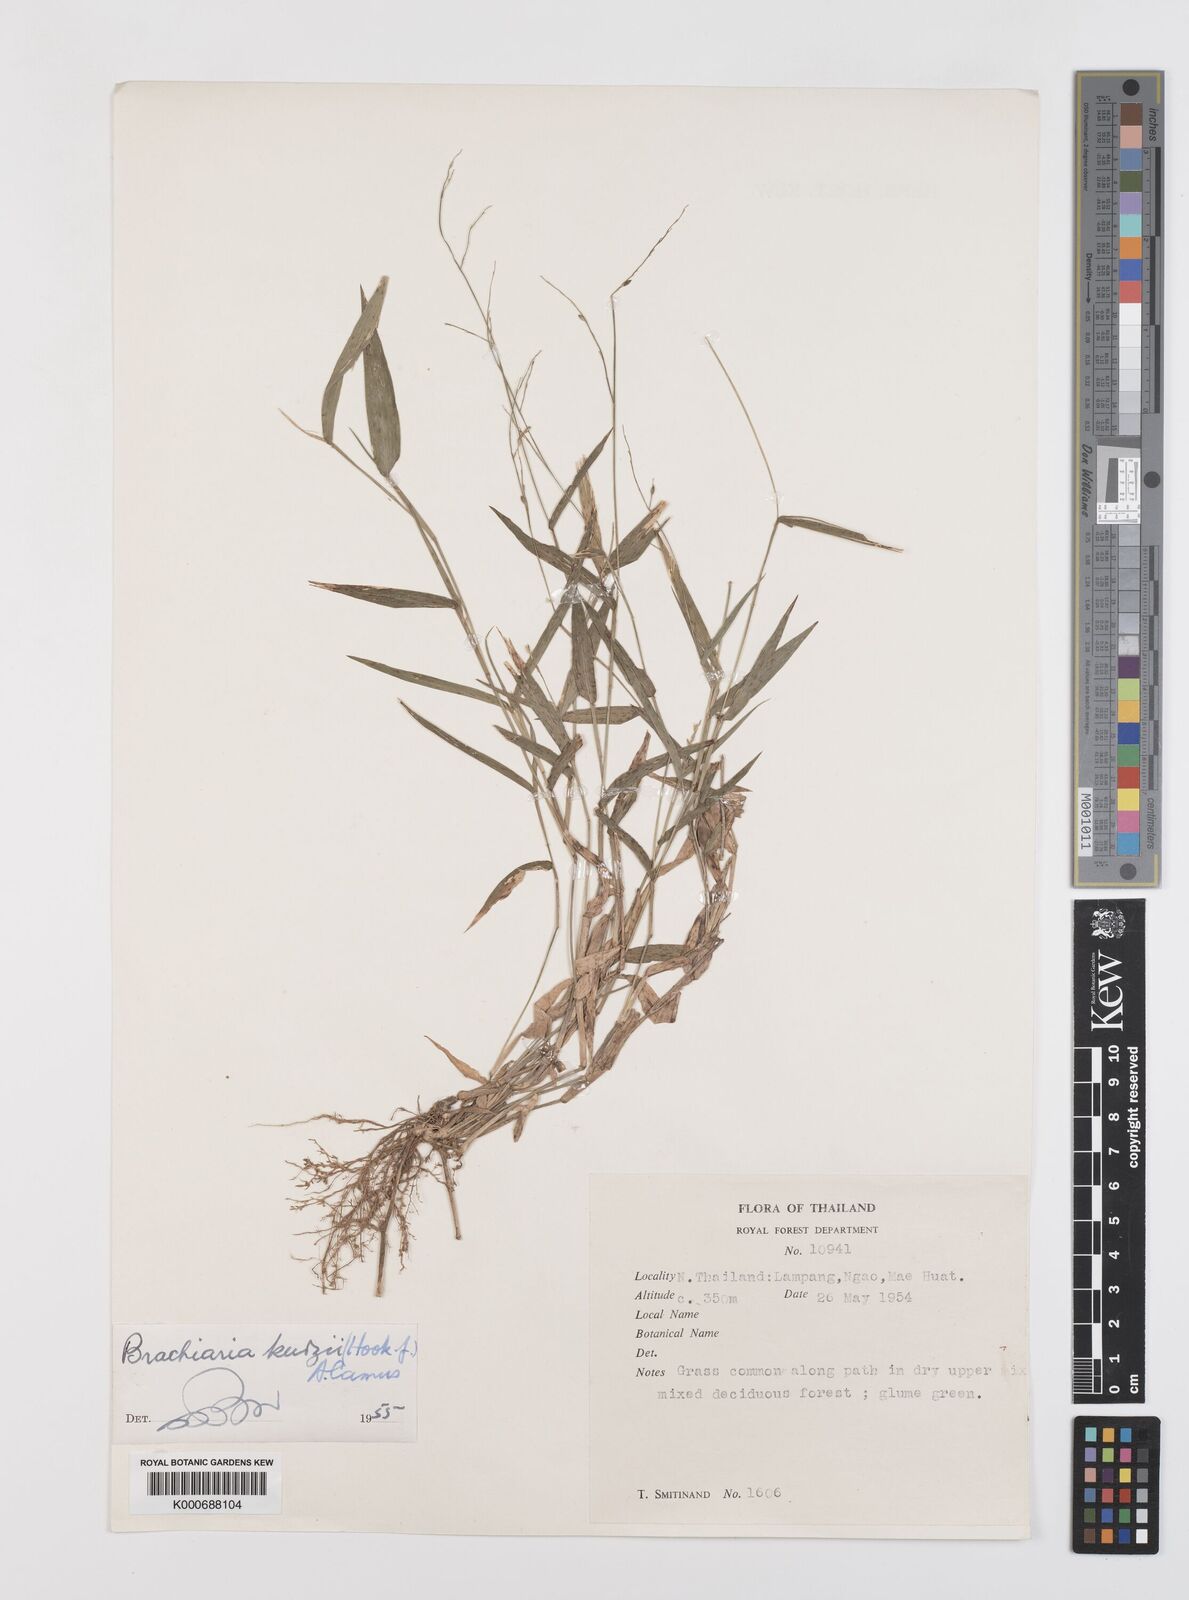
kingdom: Plantae
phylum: Tracheophyta
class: Liliopsida
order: Poales
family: Poaceae
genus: Urochloa
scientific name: Urochloa kurzii
